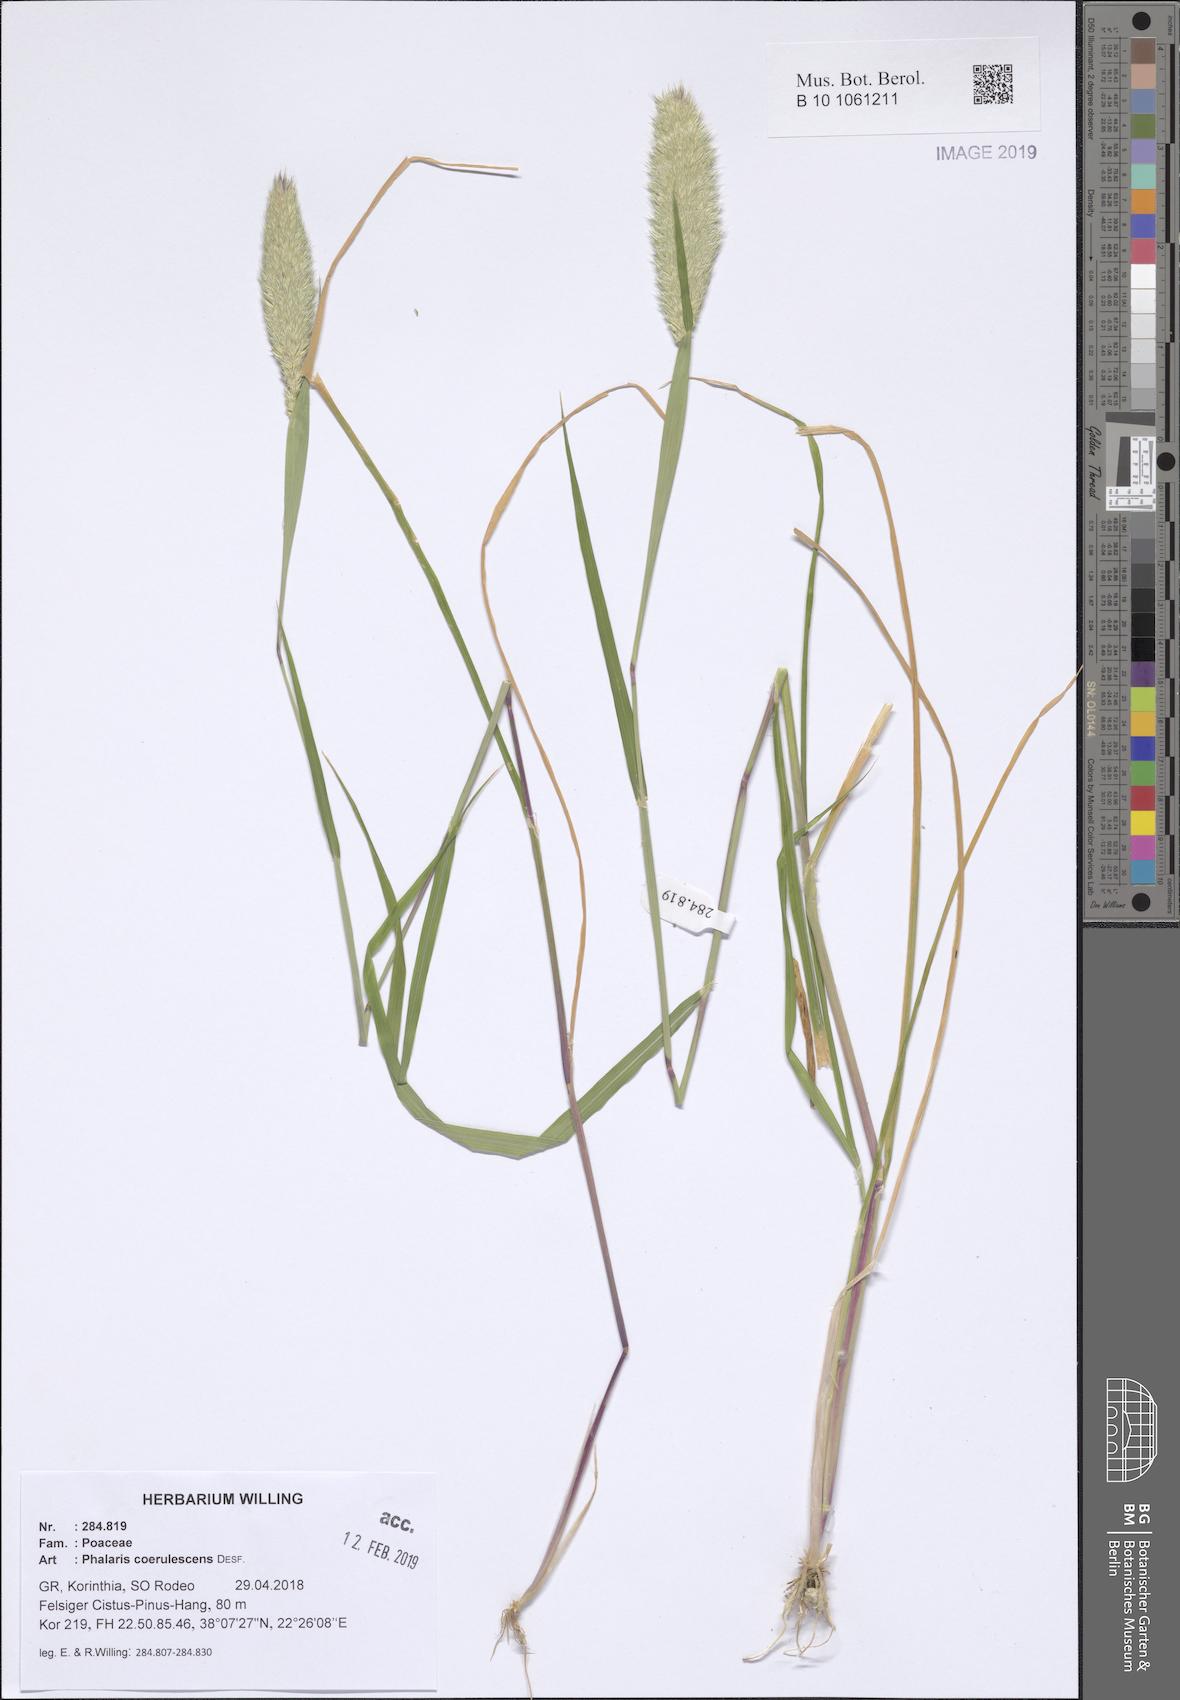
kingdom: Plantae
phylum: Tracheophyta
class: Liliopsida
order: Poales
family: Poaceae
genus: Phalaris
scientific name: Phalaris coerulescens
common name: Sunolgrass
